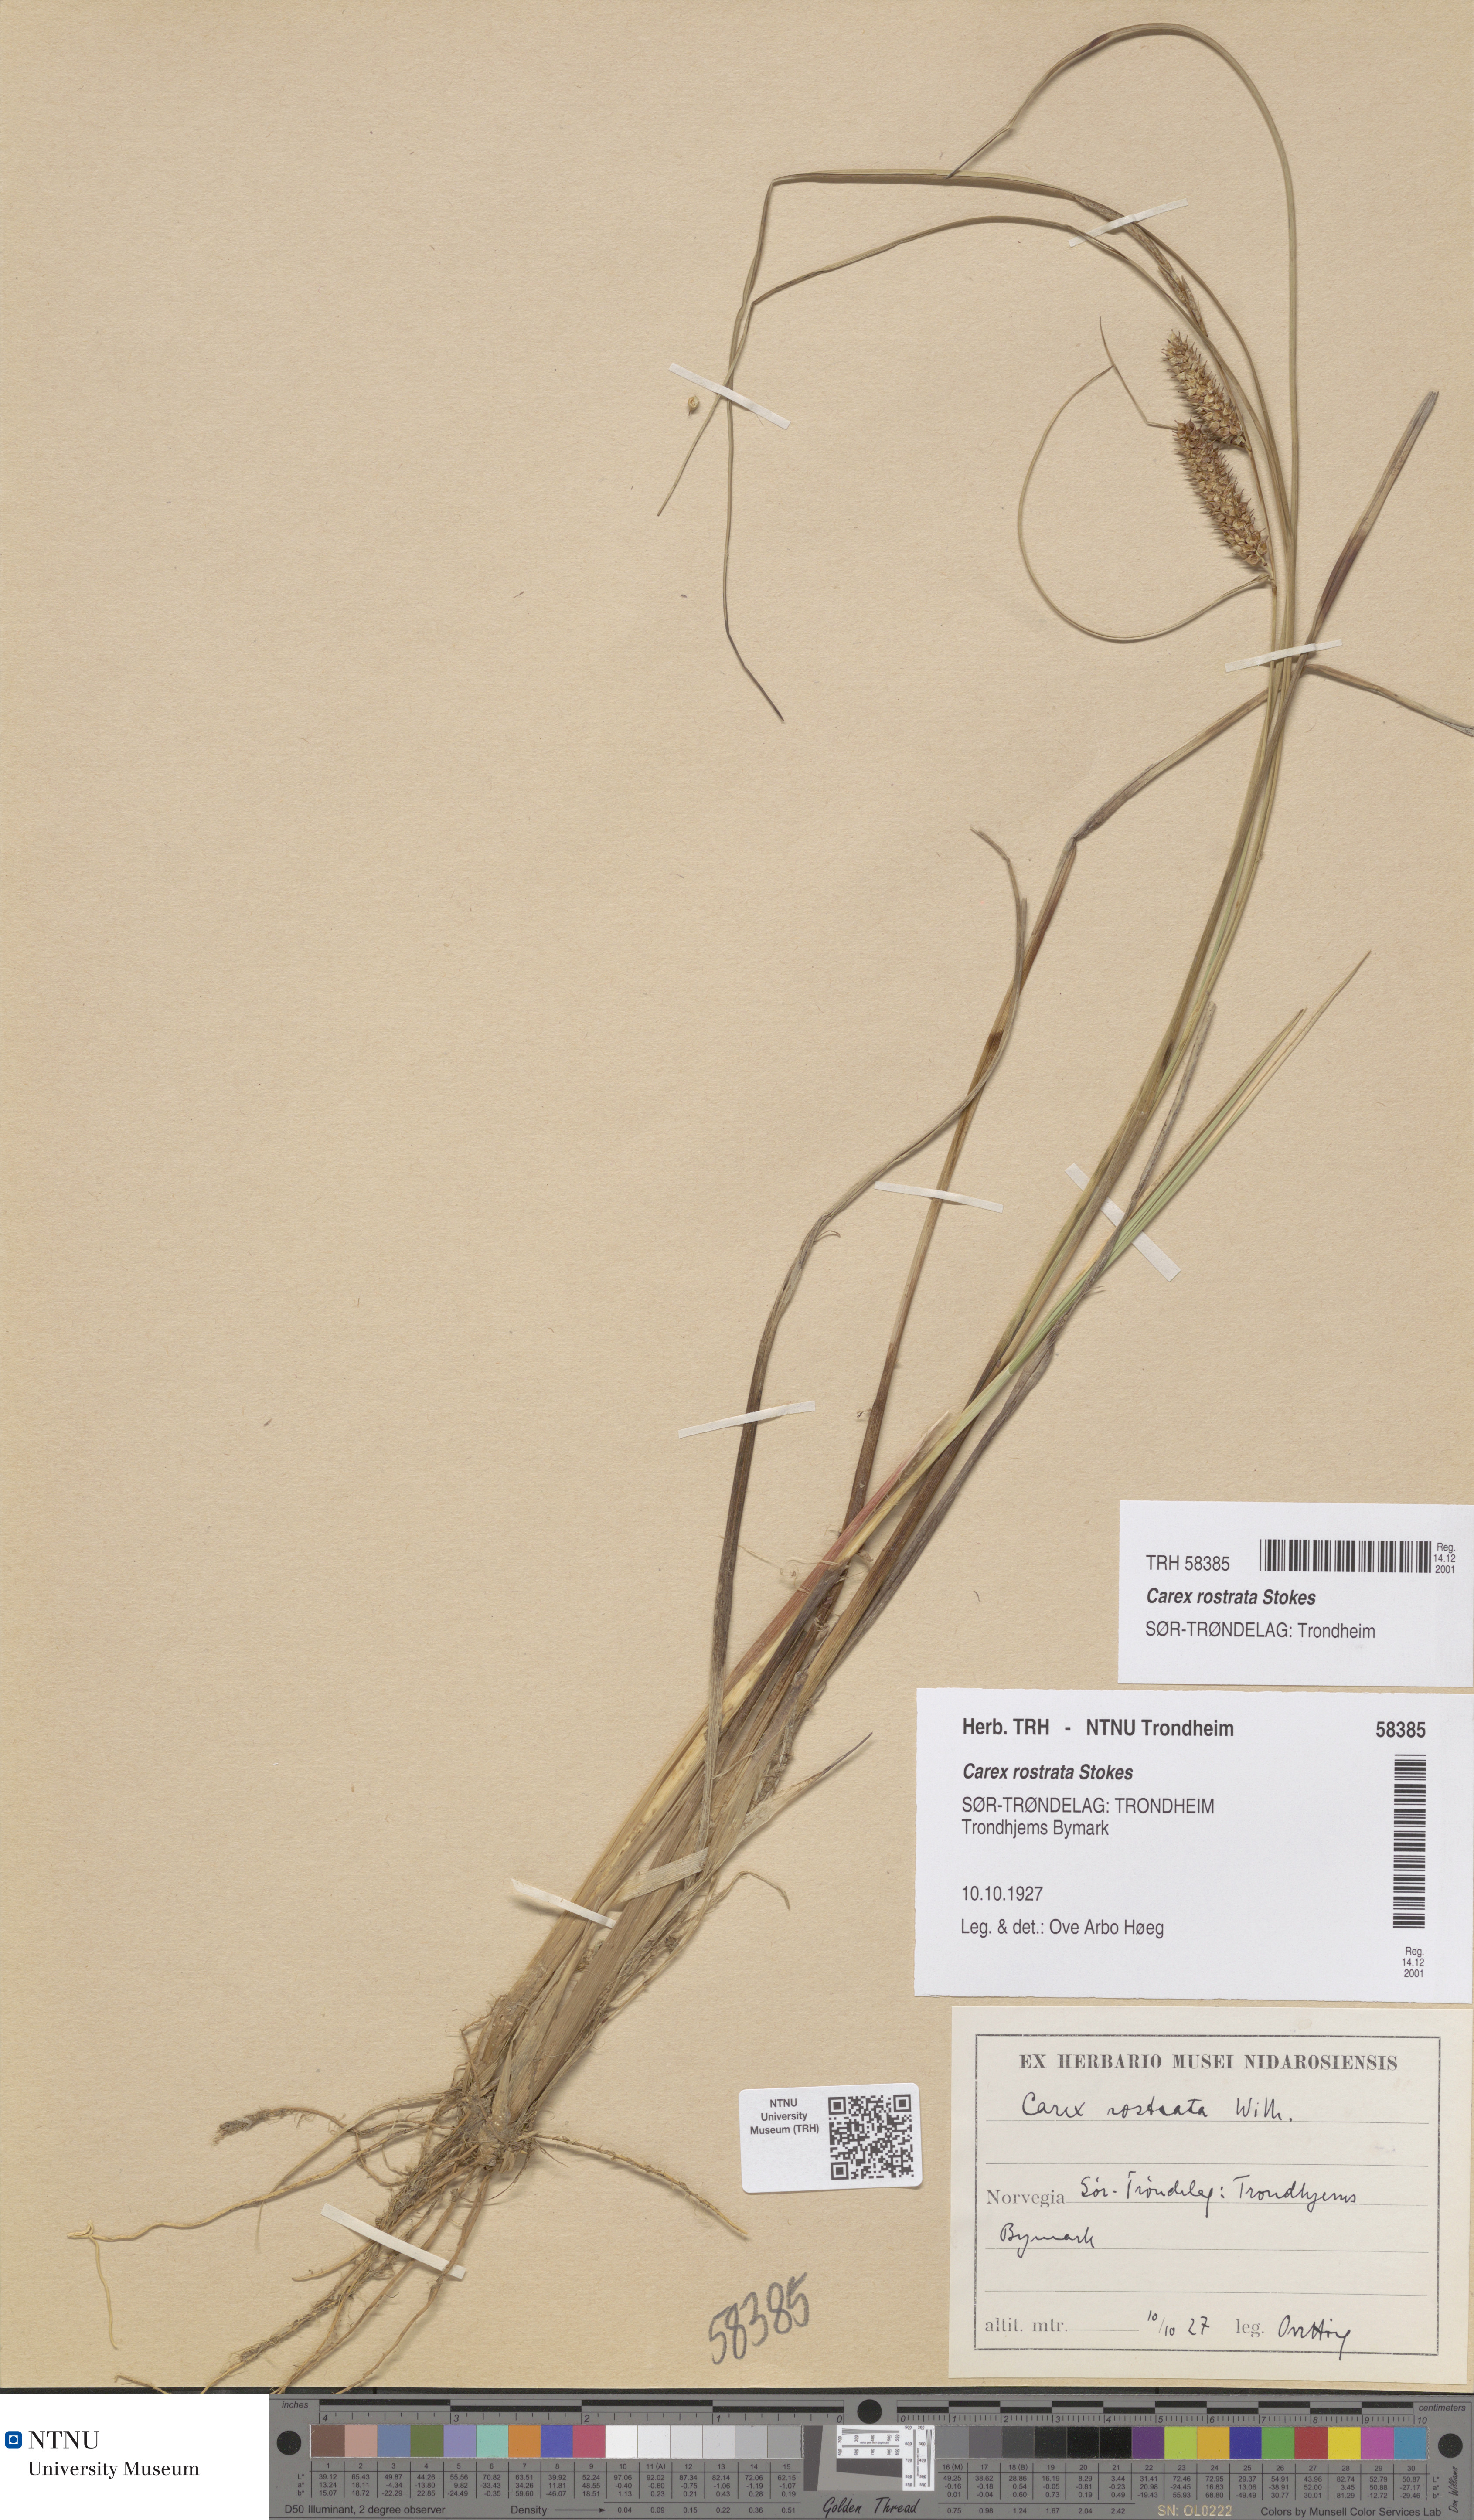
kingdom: Plantae
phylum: Tracheophyta
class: Liliopsida
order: Poales
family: Cyperaceae
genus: Carex
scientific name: Carex rostrata
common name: Bottle sedge
